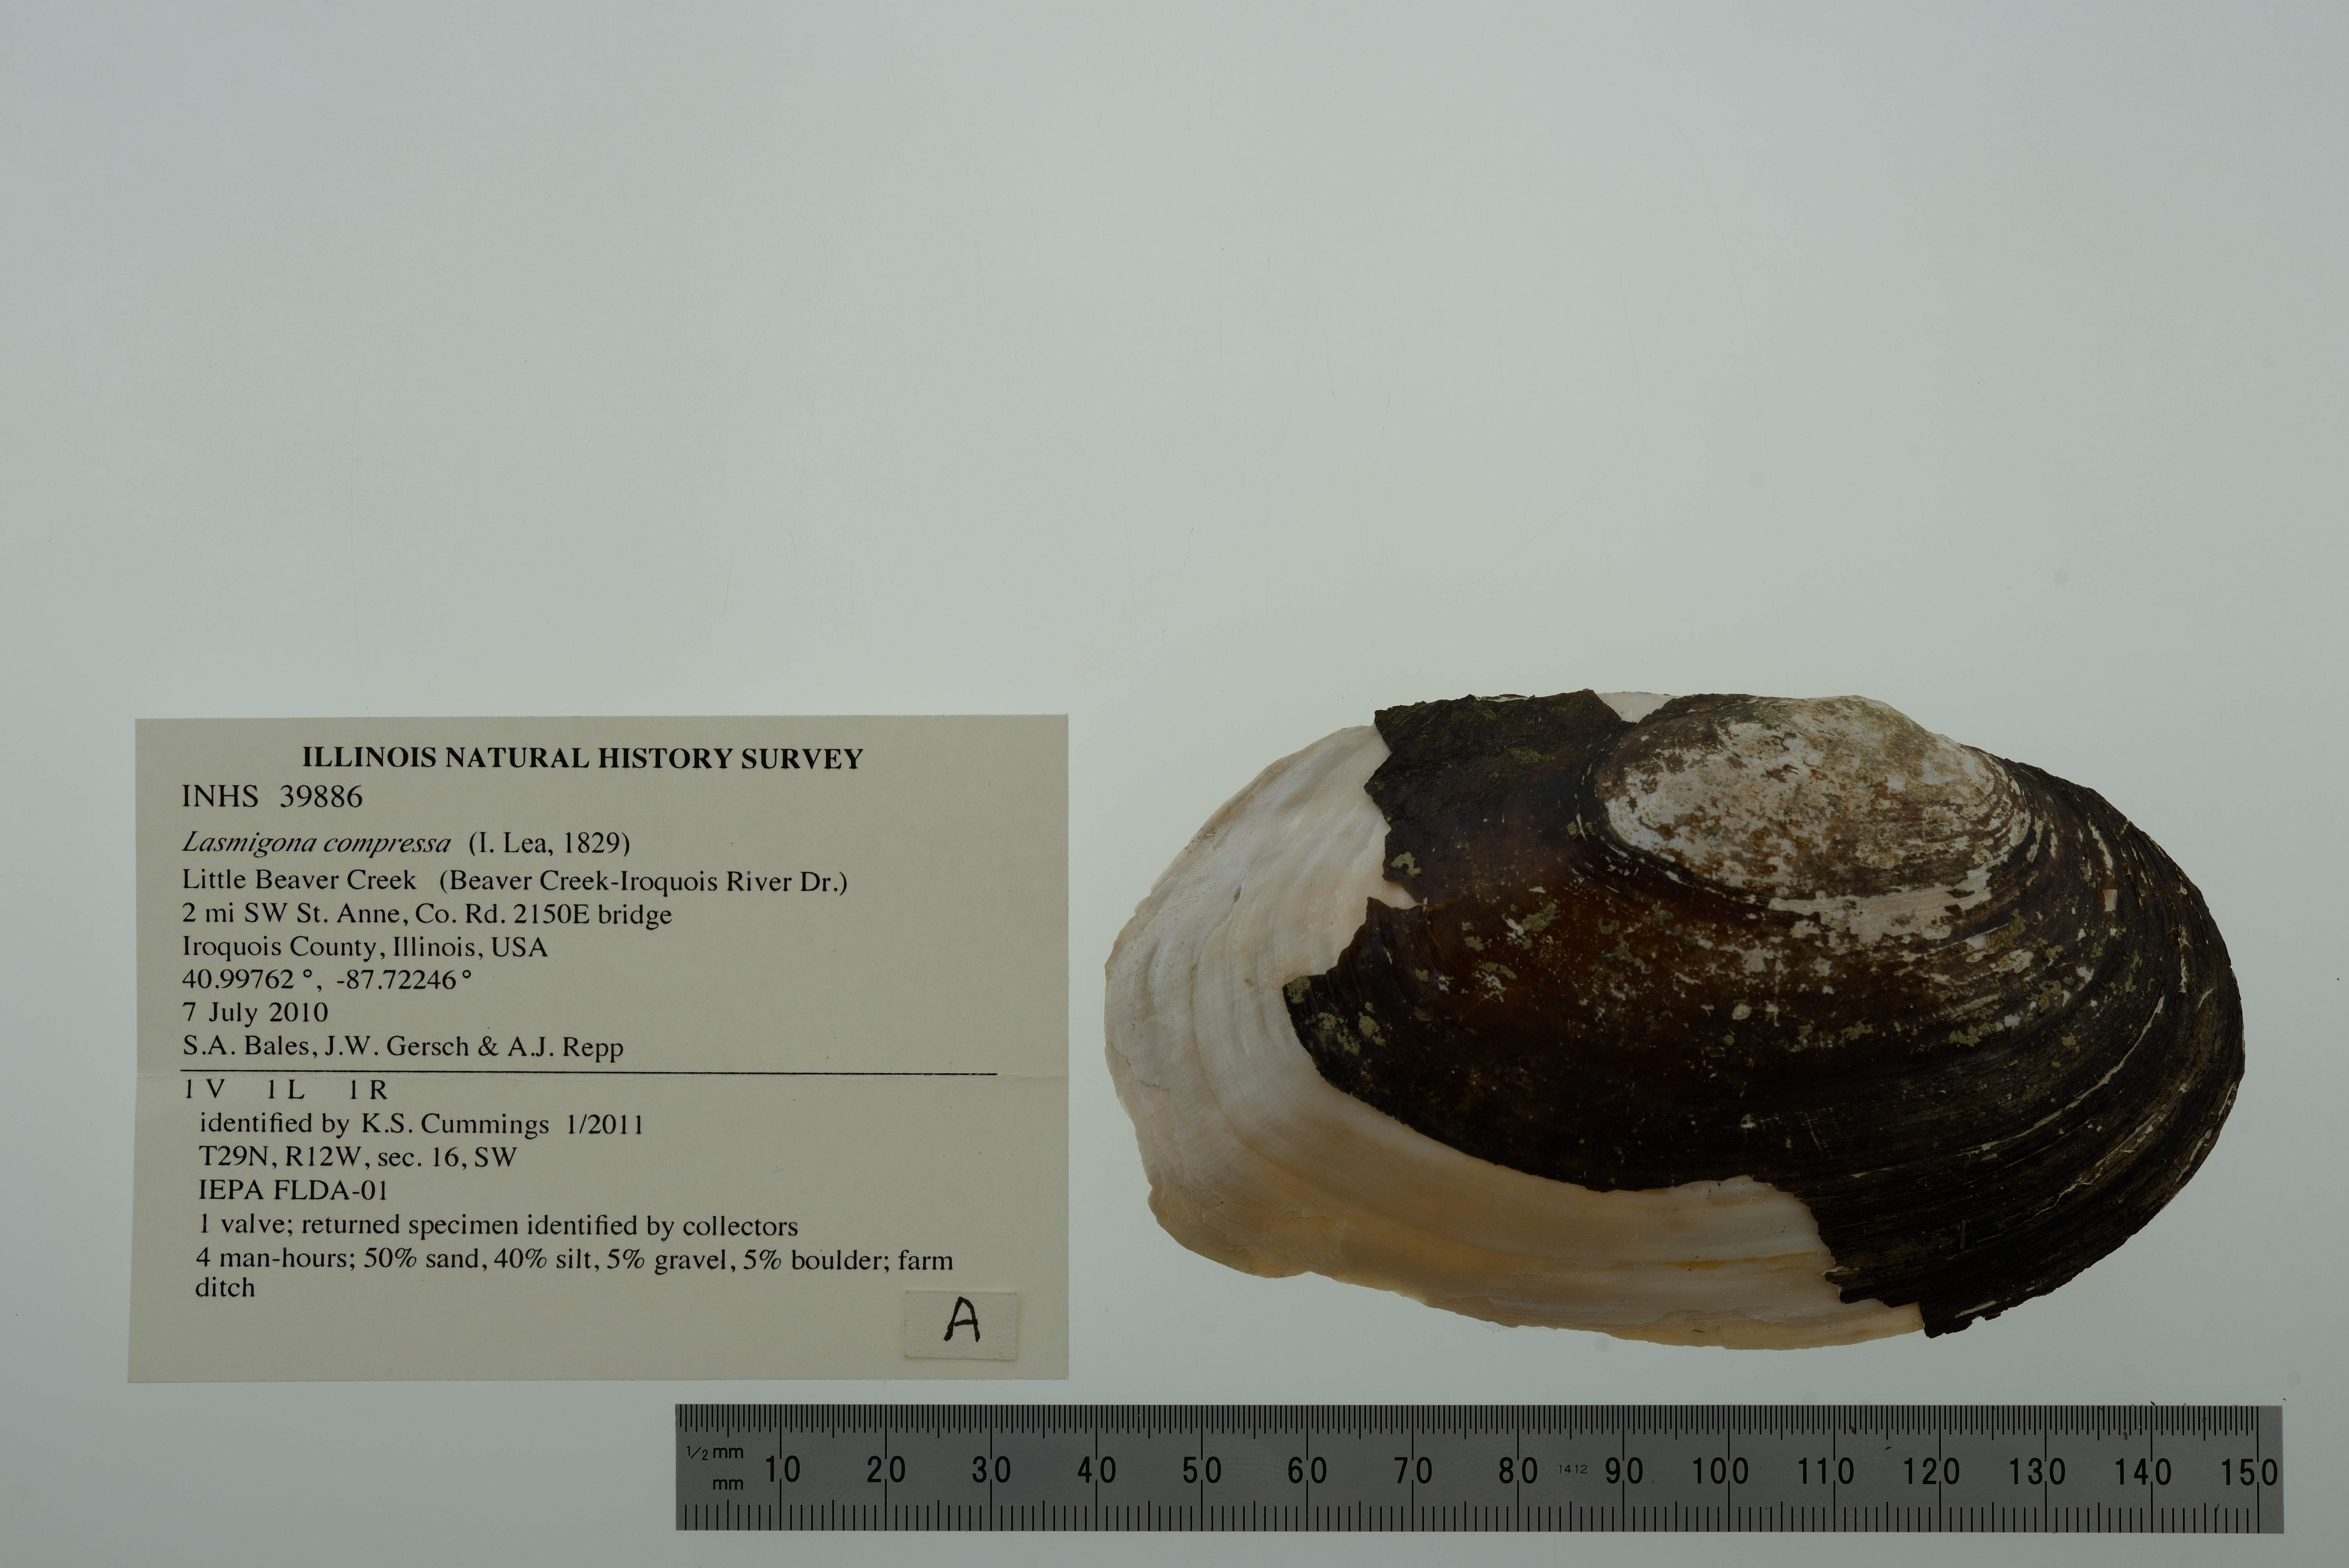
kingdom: Animalia
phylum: Mollusca
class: Bivalvia
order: Unionida
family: Unionidae
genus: Lasmigona
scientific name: Lasmigona compressa
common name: Creek heelsplitter
